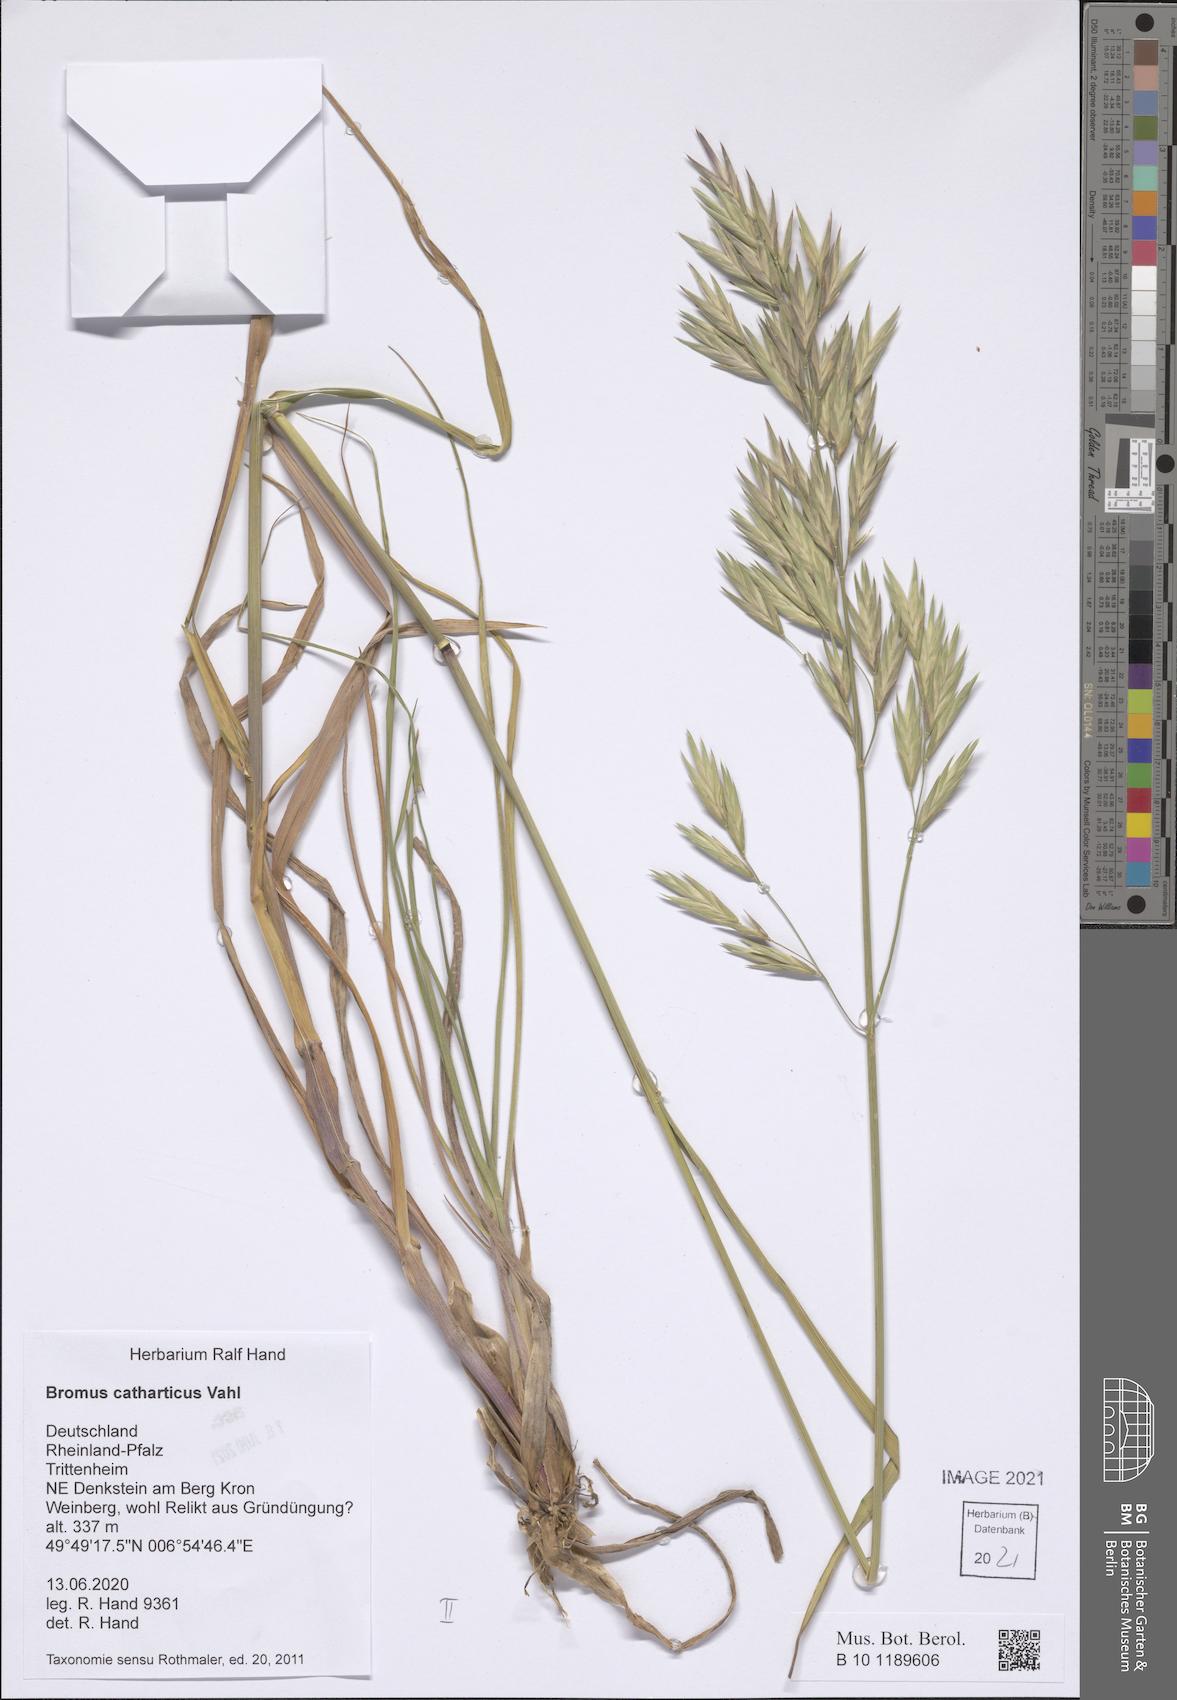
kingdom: Plantae
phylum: Tracheophyta
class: Liliopsida
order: Poales
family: Poaceae
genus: Bromus
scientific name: Bromus catharticus
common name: Rescuegrass
